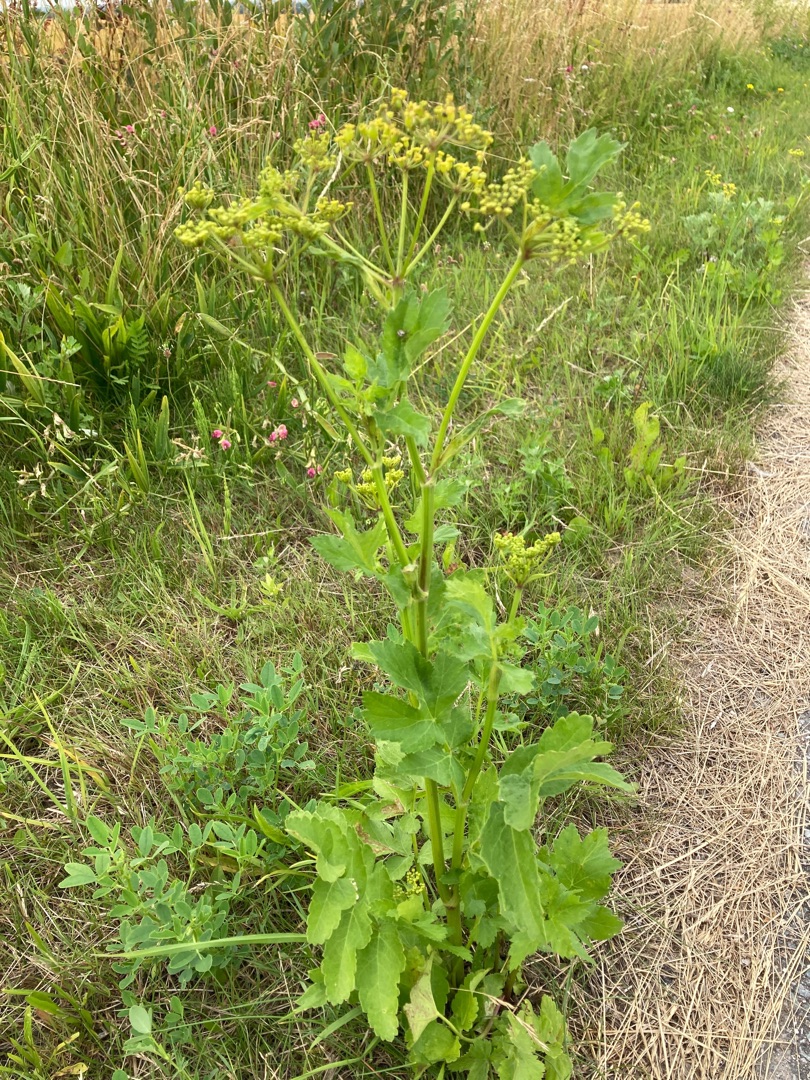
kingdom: Plantae
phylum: Tracheophyta
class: Magnoliopsida
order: Apiales
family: Apiaceae
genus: Pastinaca
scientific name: Pastinaca sativa
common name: Pastinak
